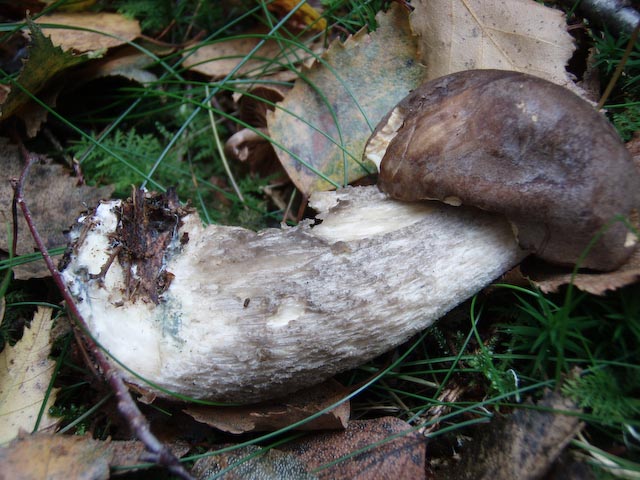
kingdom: Fungi
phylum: Basidiomycota
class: Agaricomycetes
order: Boletales
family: Boletaceae
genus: Leccinum
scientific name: Leccinum variicolor
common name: flammet skælrørhat
